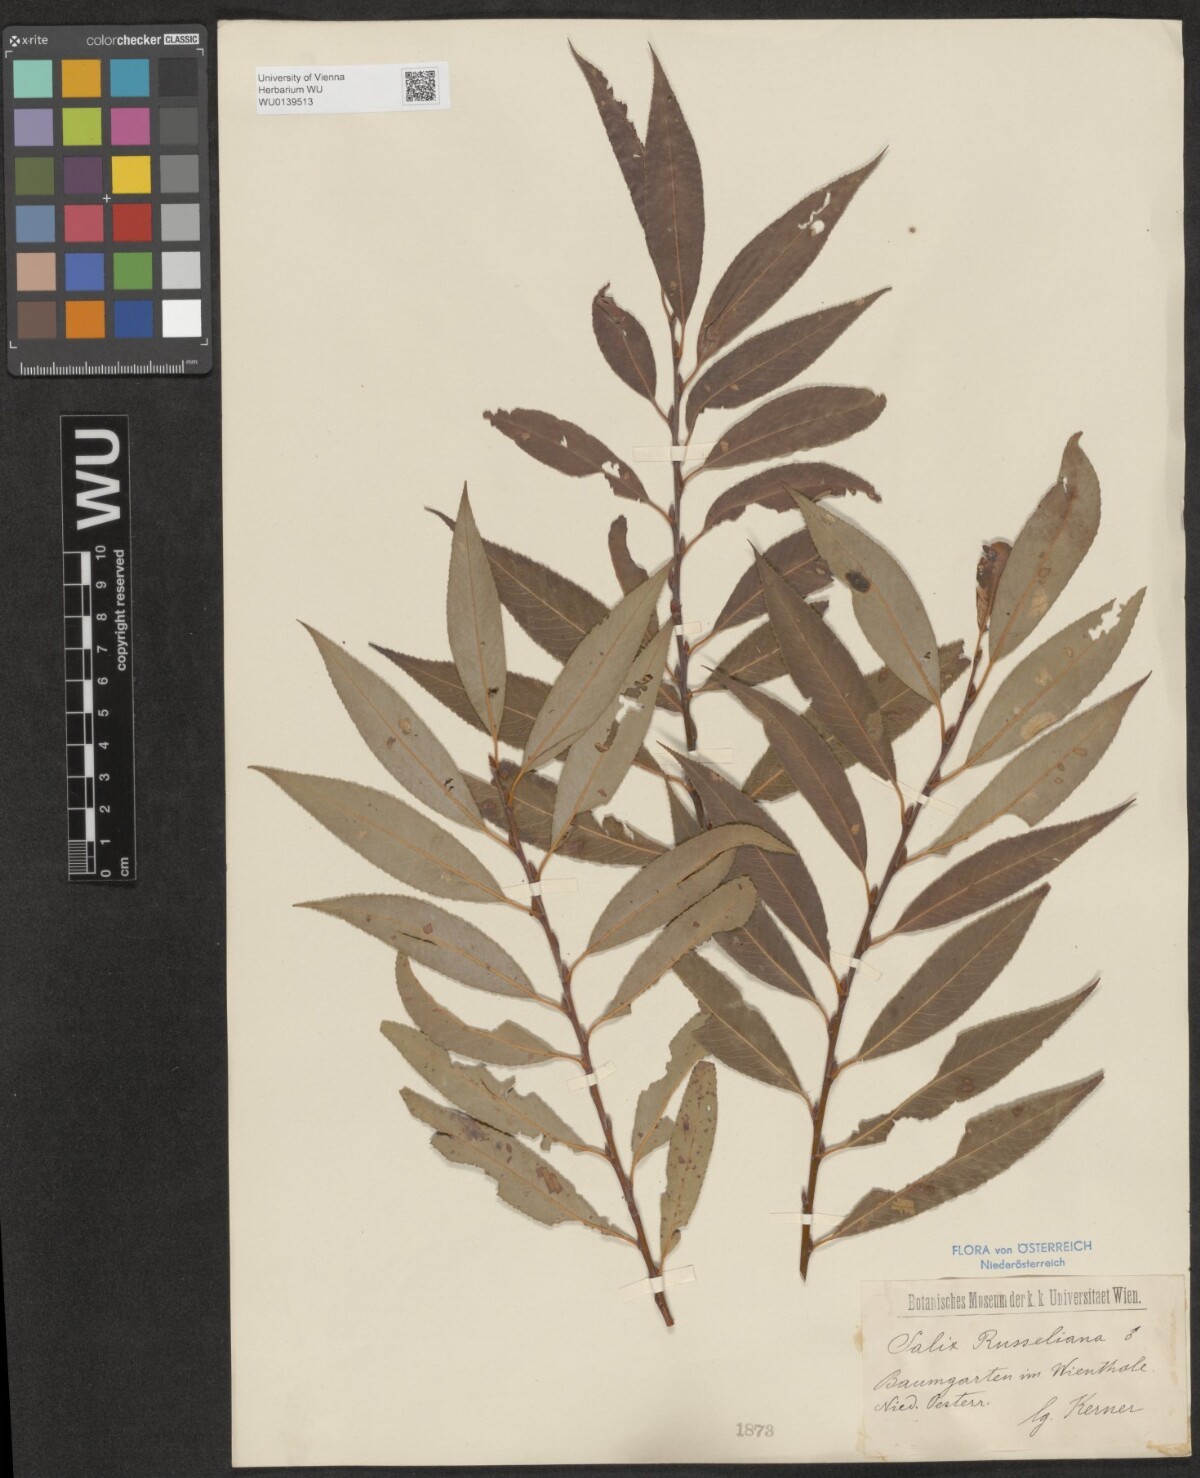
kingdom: Plantae
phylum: Tracheophyta
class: Magnoliopsida
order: Malpighiales
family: Salicaceae
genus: Salix
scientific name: Salix rubens
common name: Hybrid crack willow
